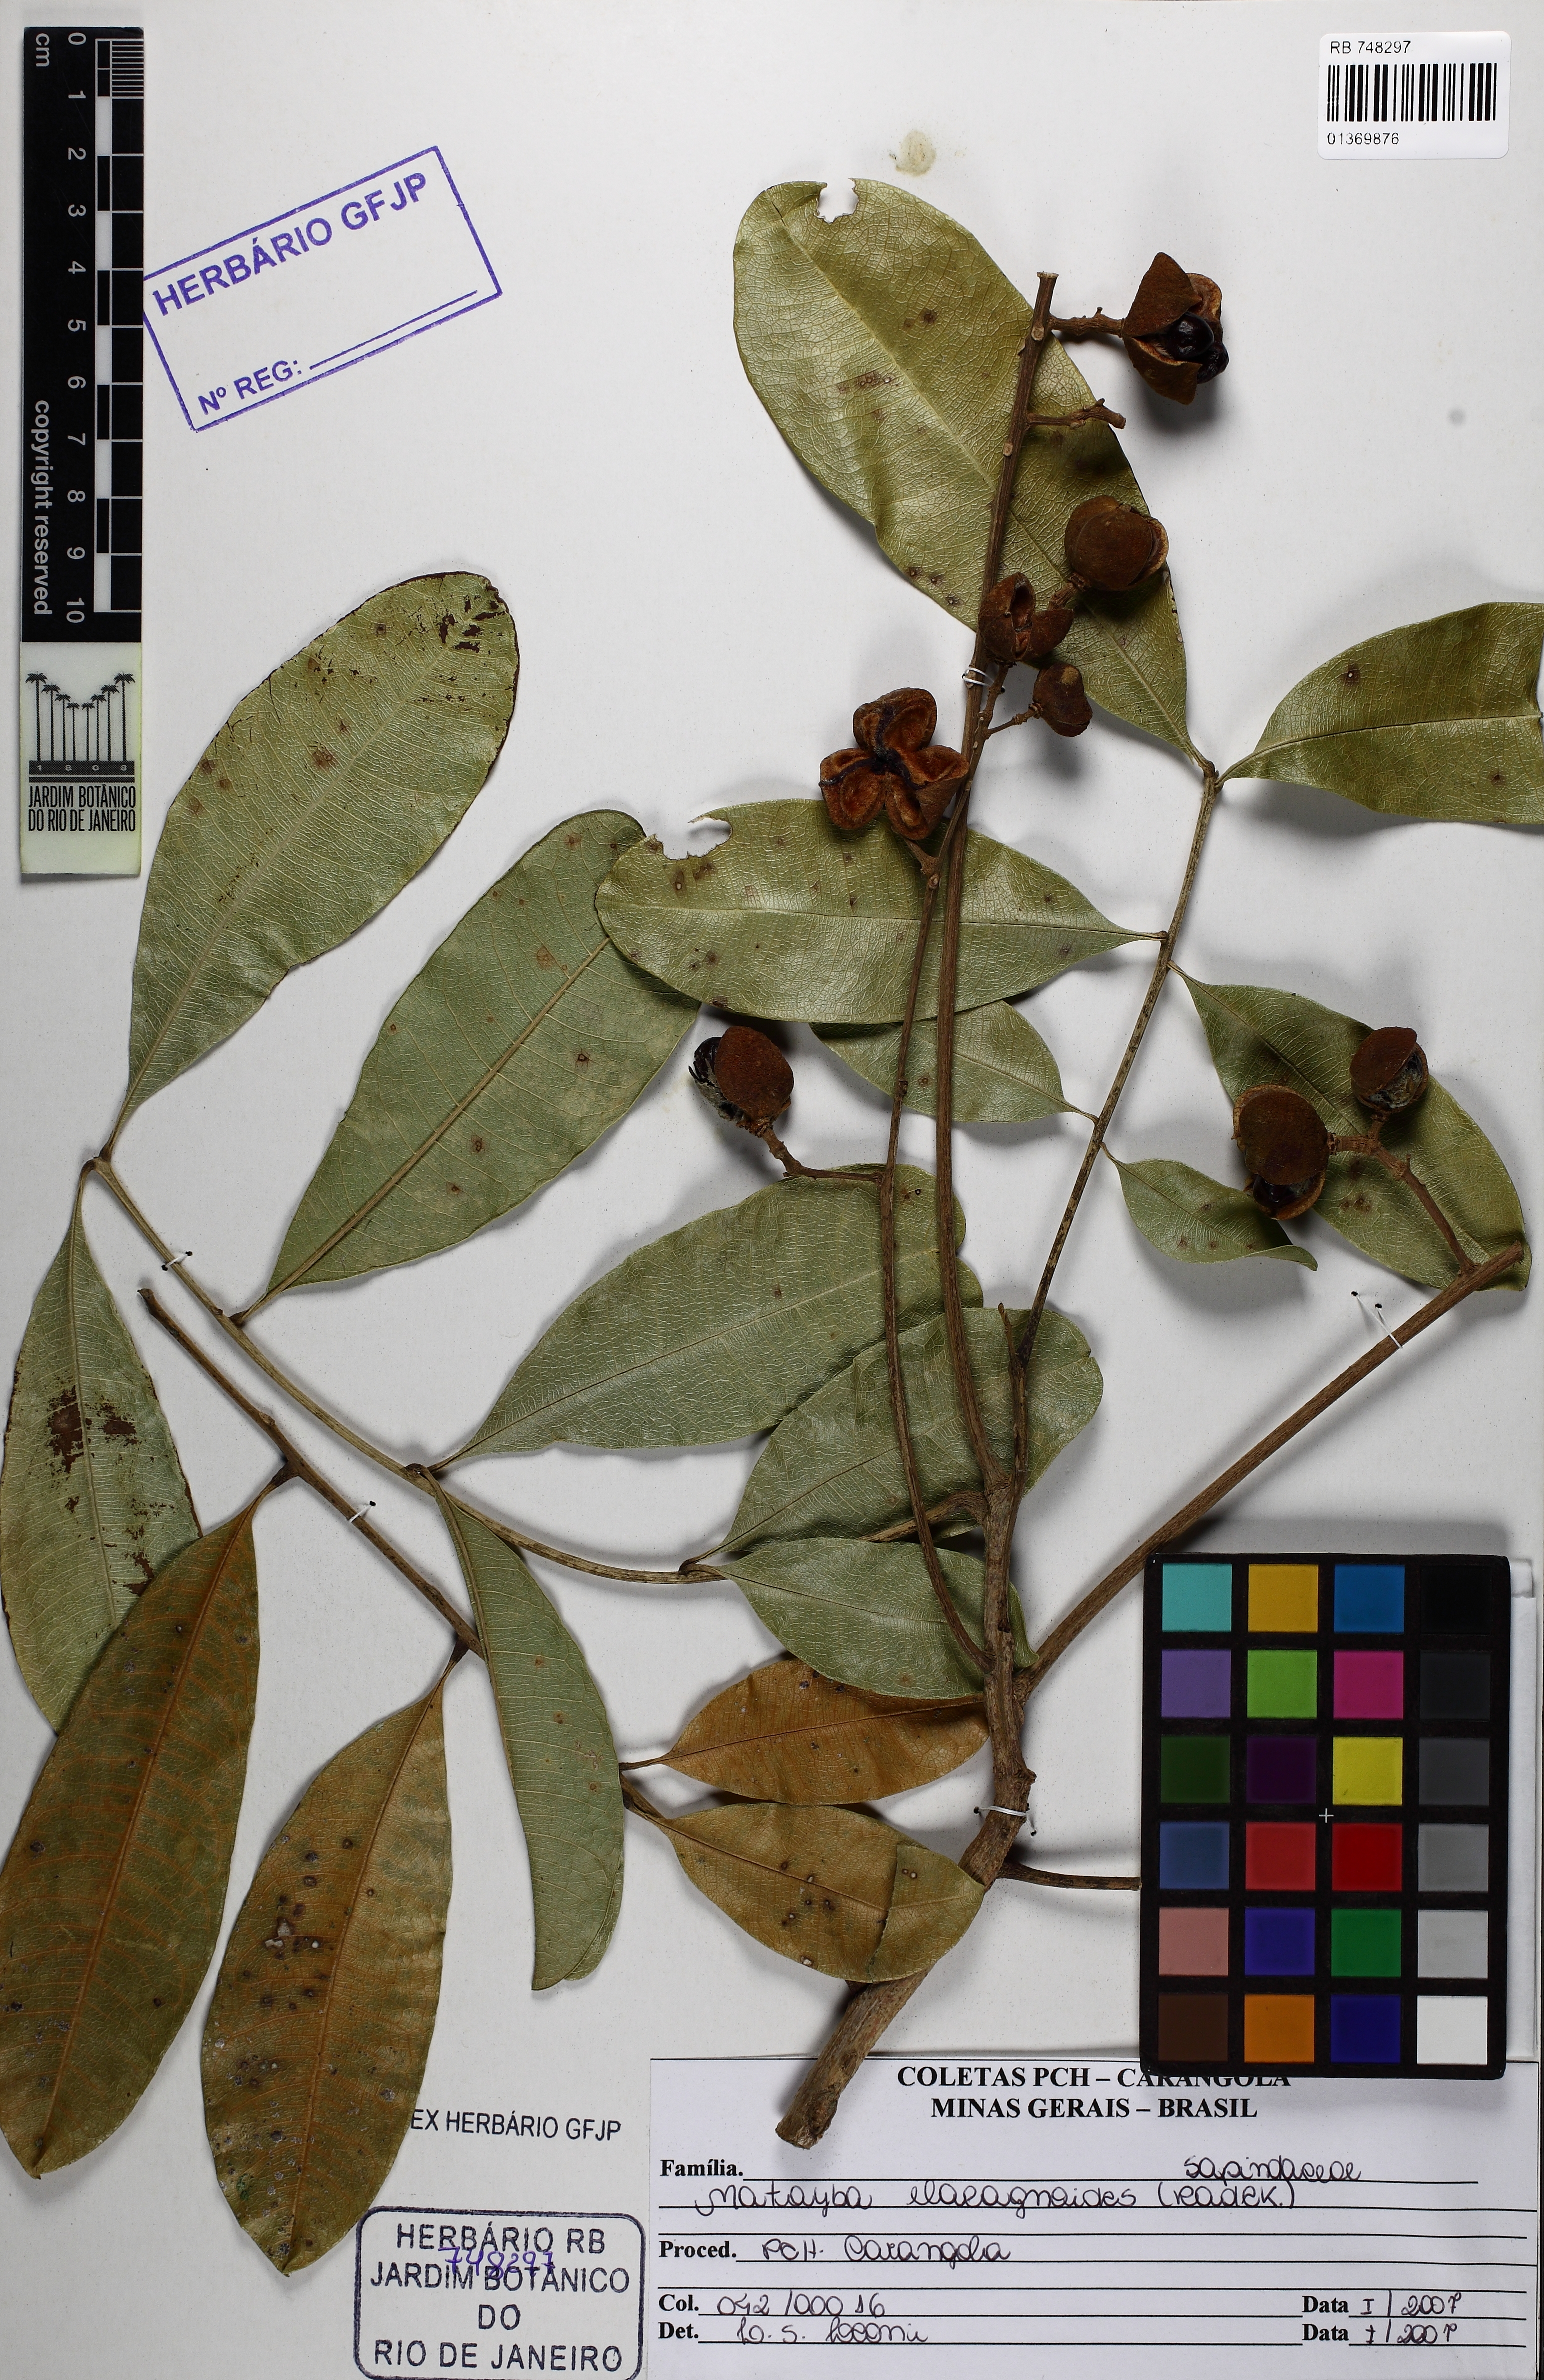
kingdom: Plantae
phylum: Tracheophyta
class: Magnoliopsida
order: Sapindales
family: Sapindaceae
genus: Matayba
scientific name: Matayba elaeagnoides
